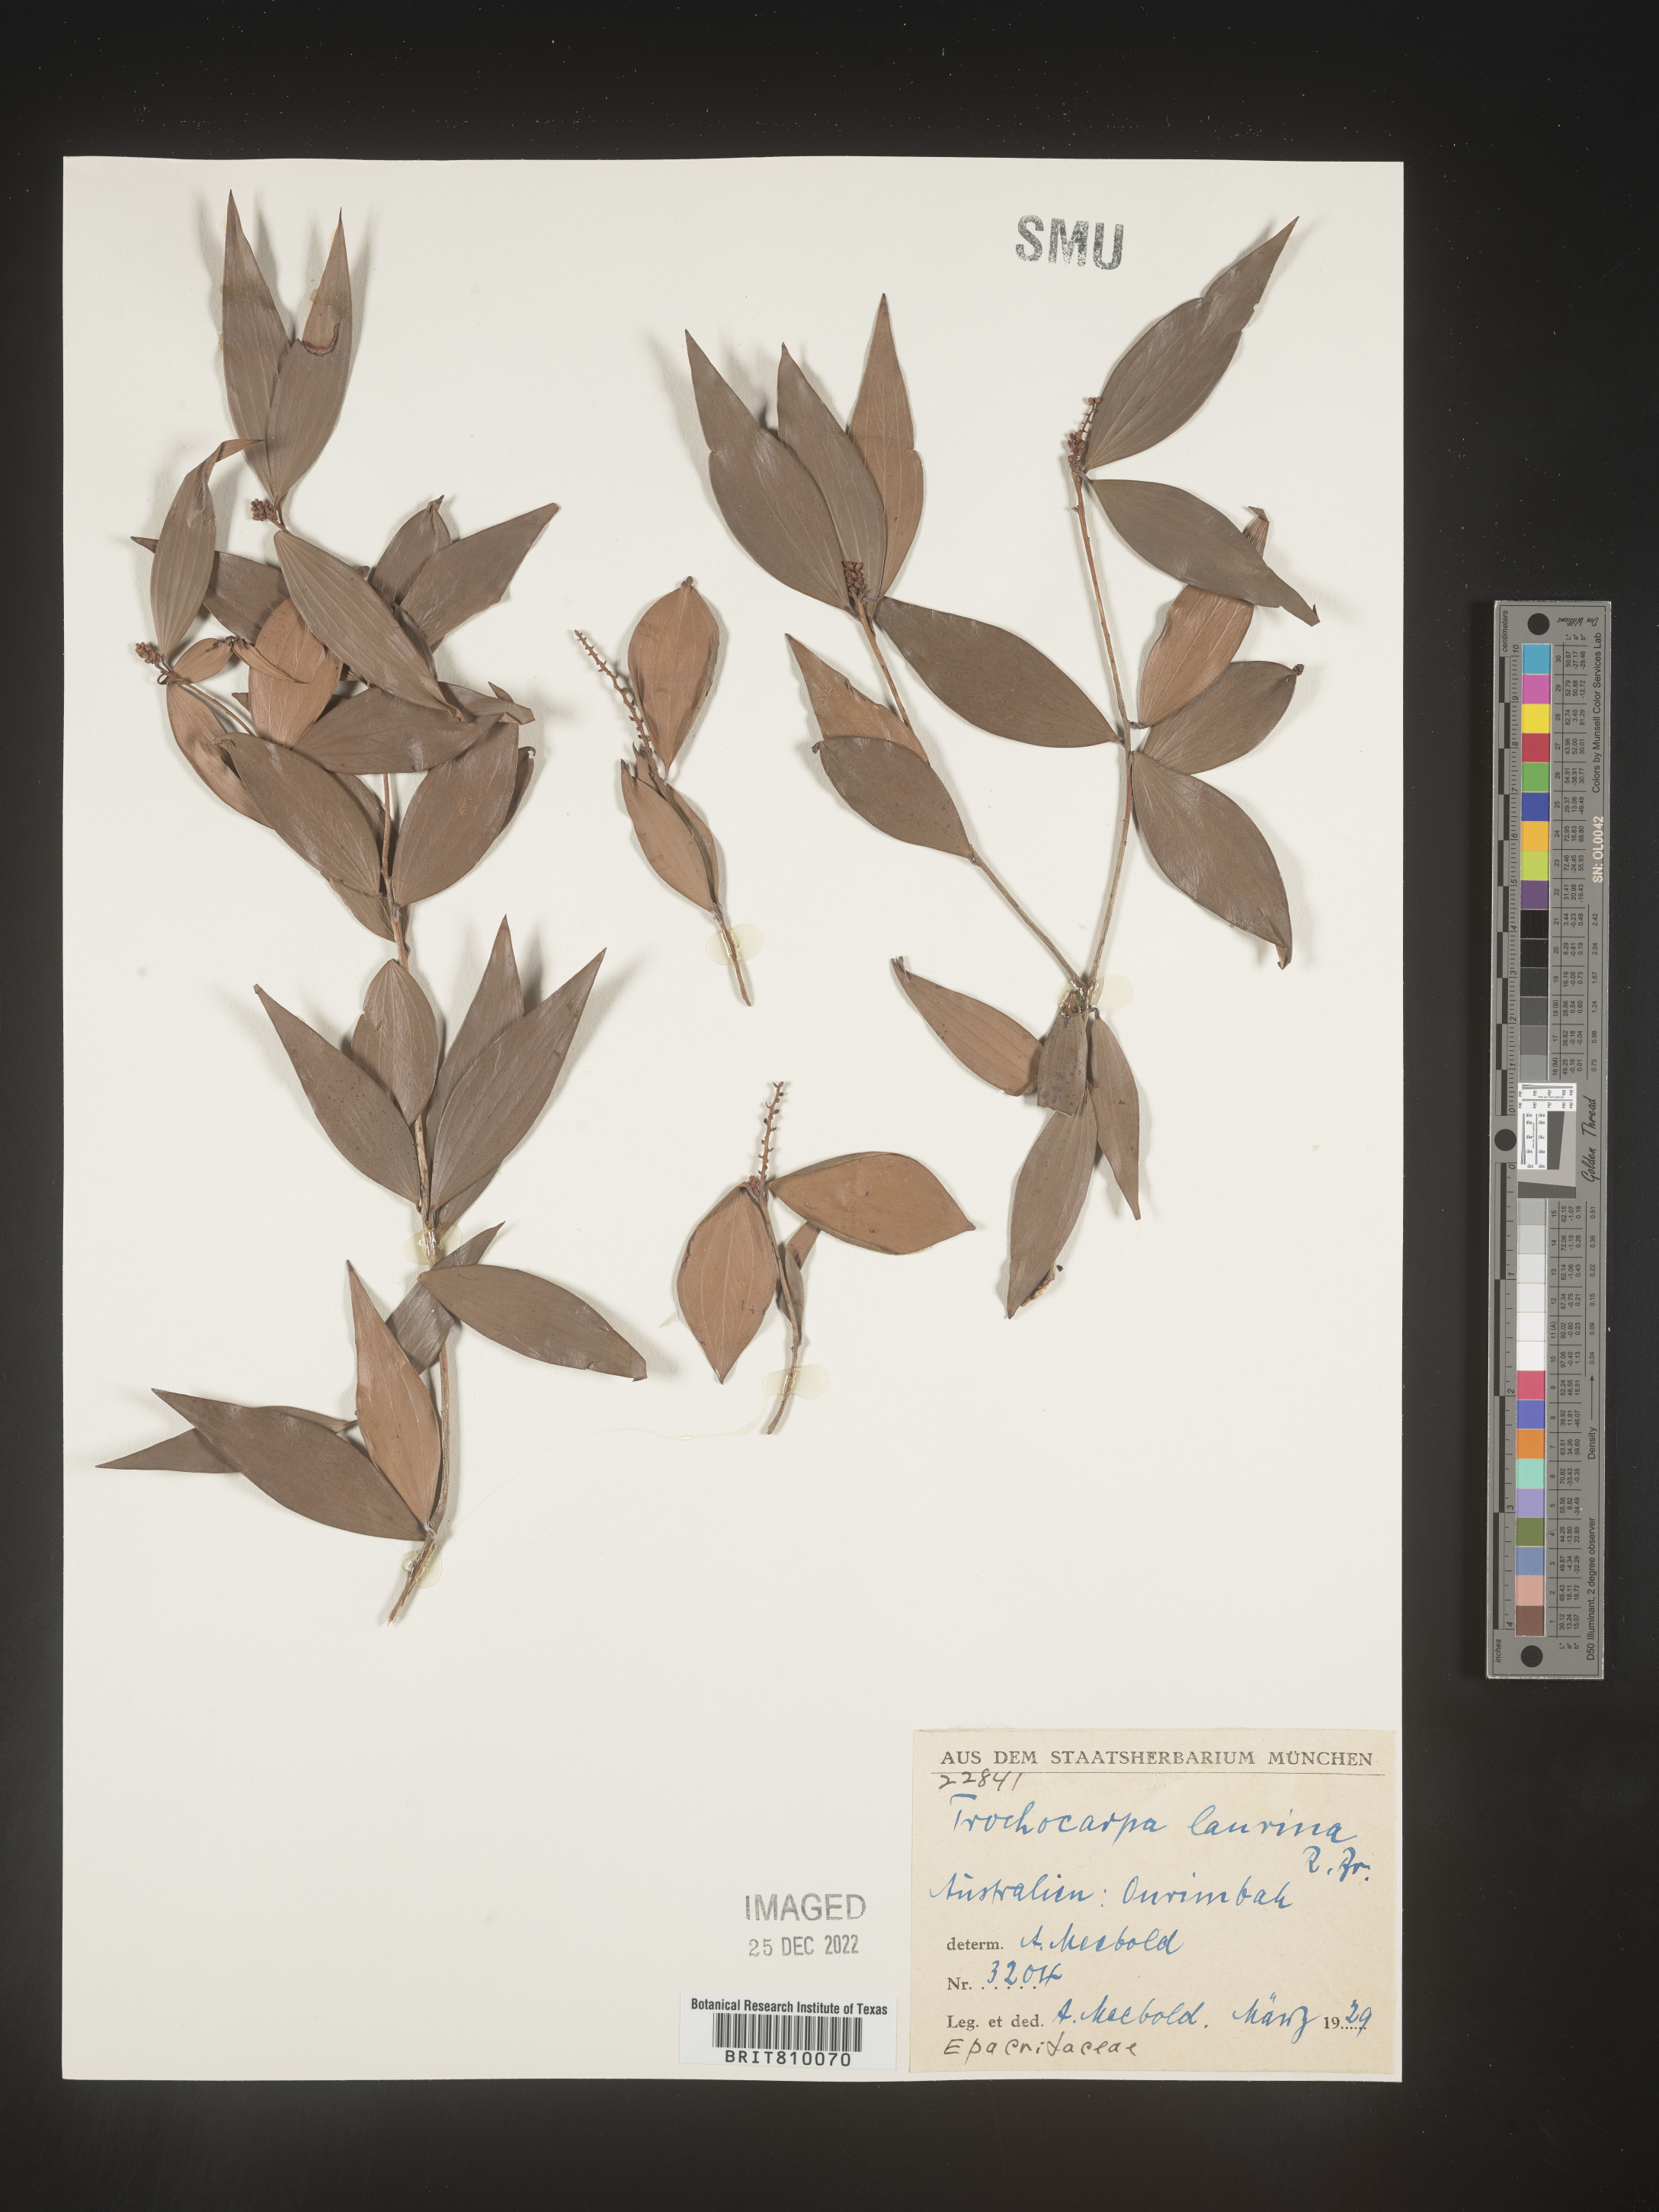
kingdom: Plantae
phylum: Tracheophyta
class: Magnoliopsida
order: Ericales
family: Ericaceae
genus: Trochocarpa
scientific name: Trochocarpa
